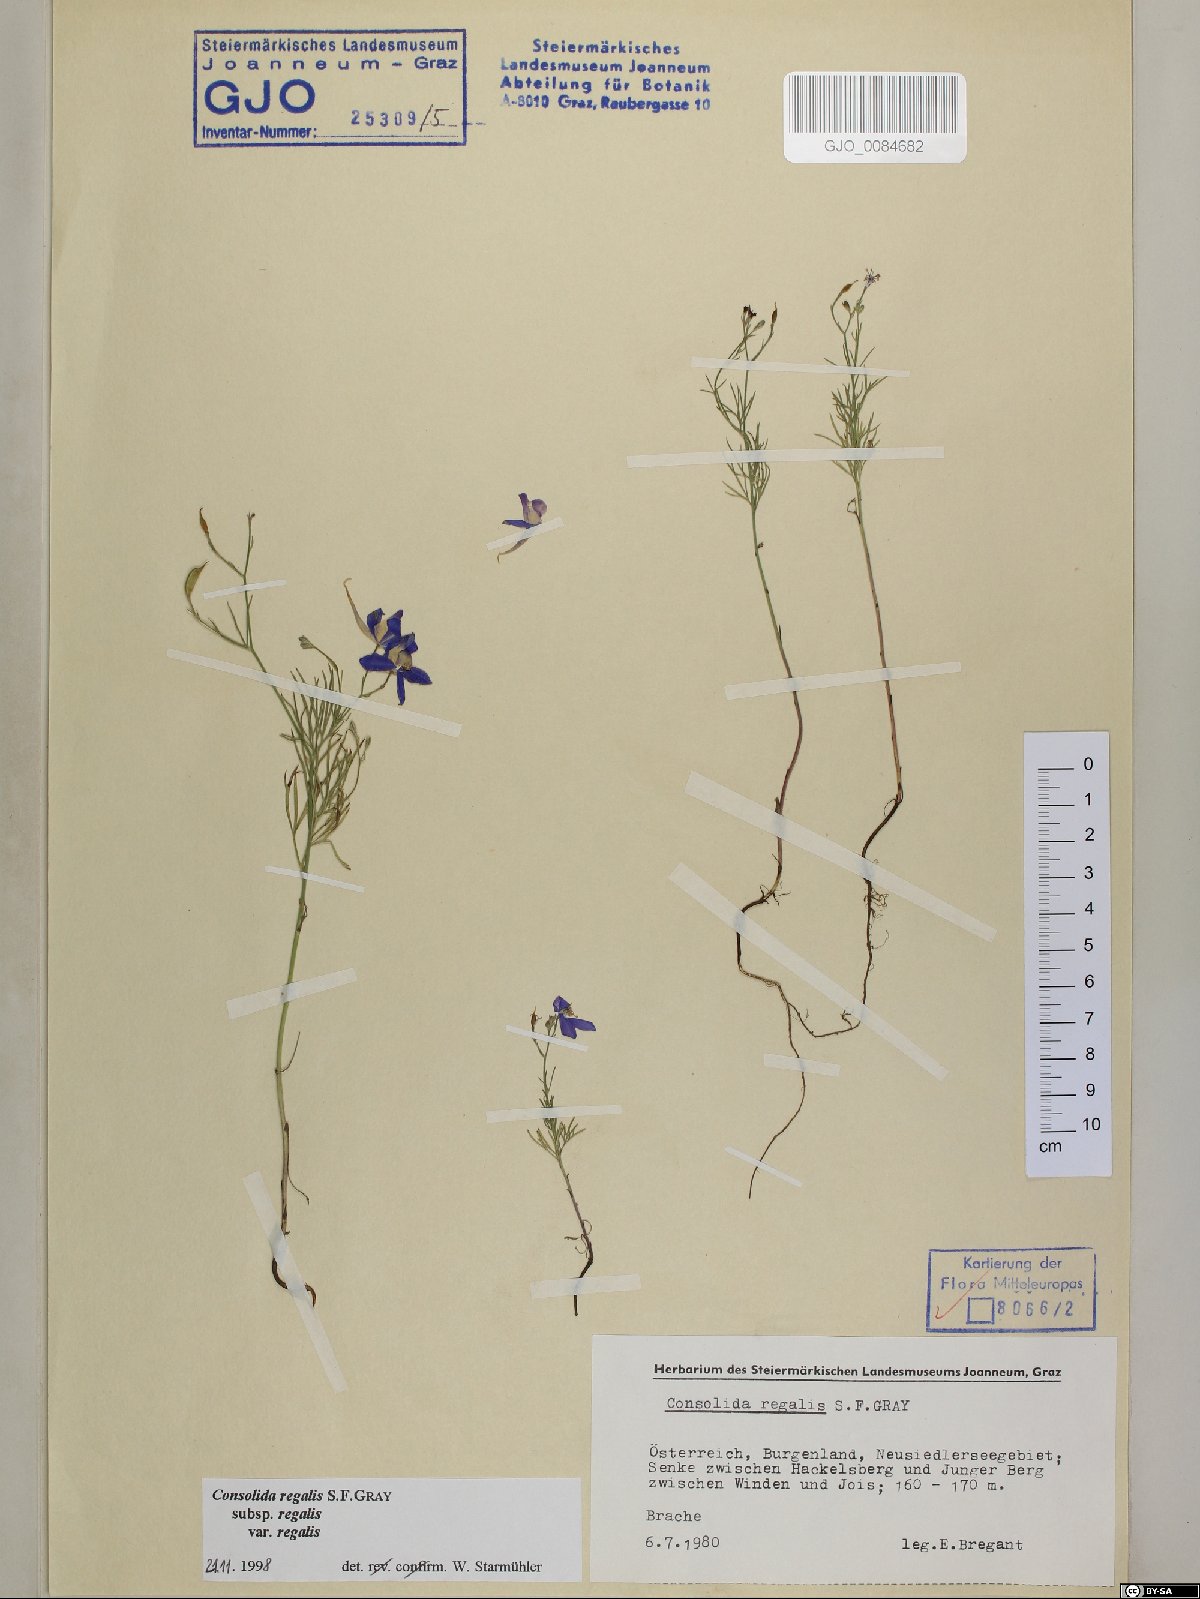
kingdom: Plantae
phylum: Tracheophyta
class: Magnoliopsida
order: Ranunculales
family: Ranunculaceae
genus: Delphinium
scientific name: Delphinium consolida
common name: Branching larkspur
